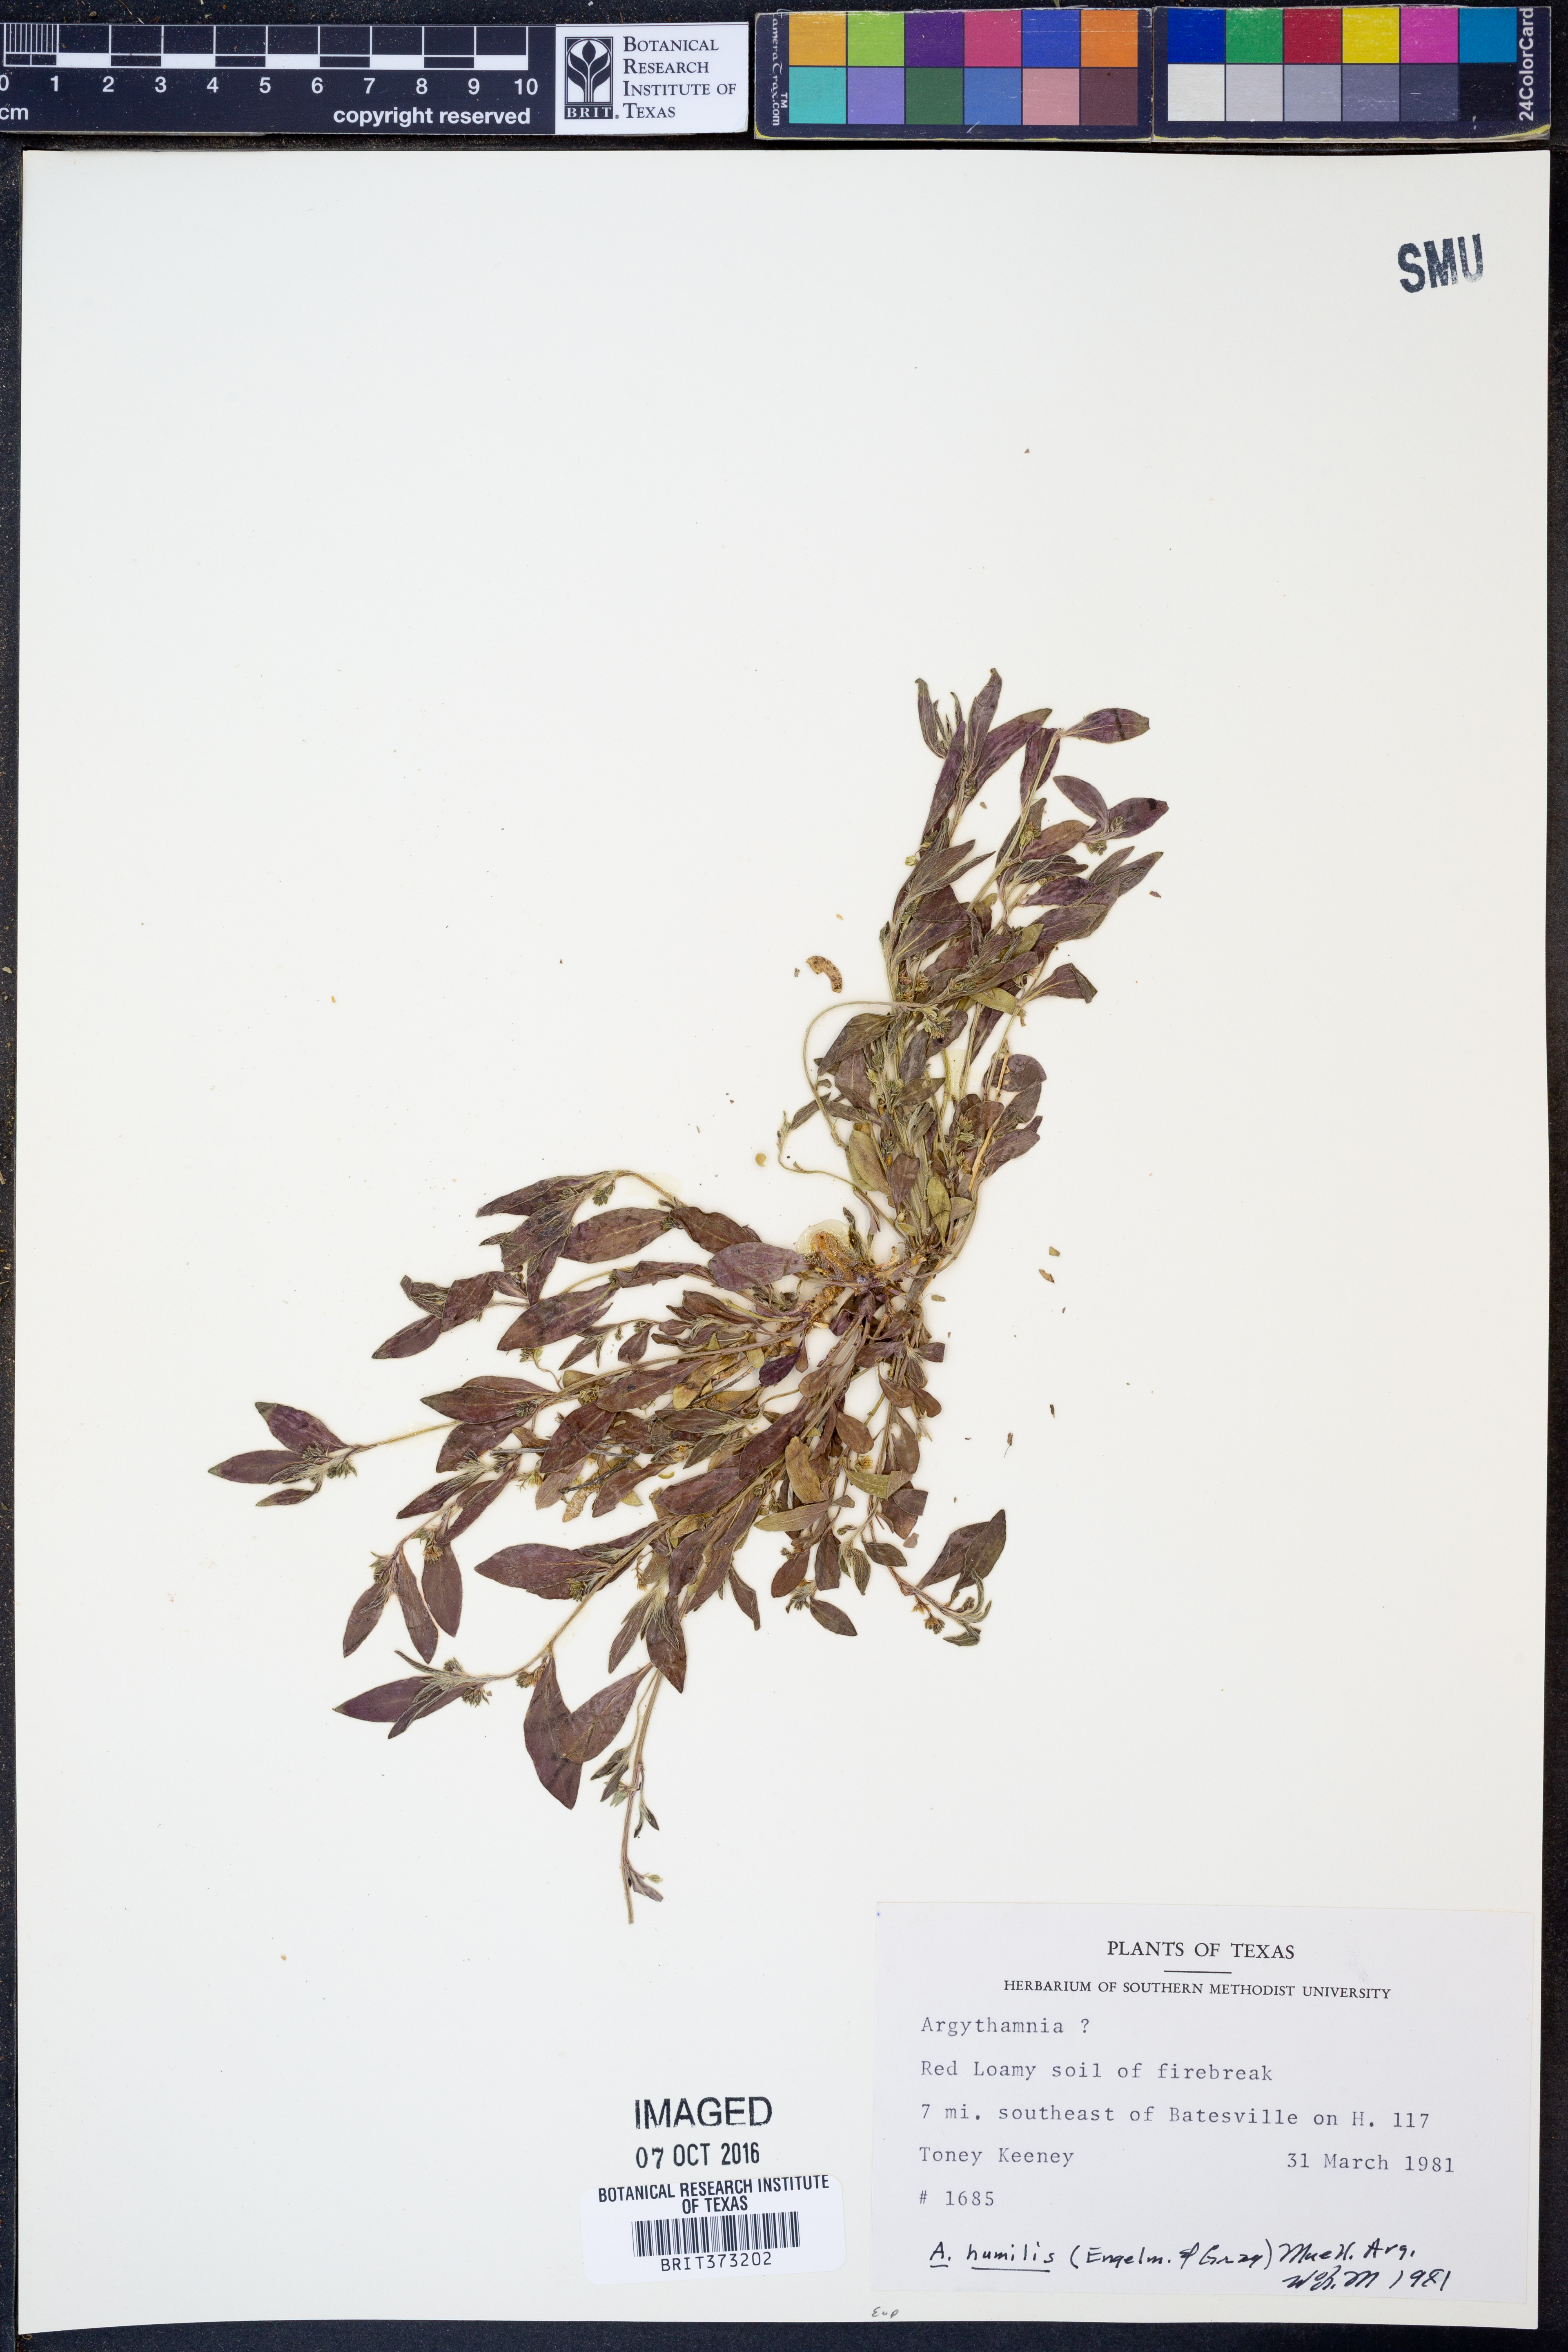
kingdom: Plantae
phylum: Tracheophyta
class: Magnoliopsida
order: Malpighiales
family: Euphorbiaceae
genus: Ditaxis
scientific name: Ditaxis humilis
